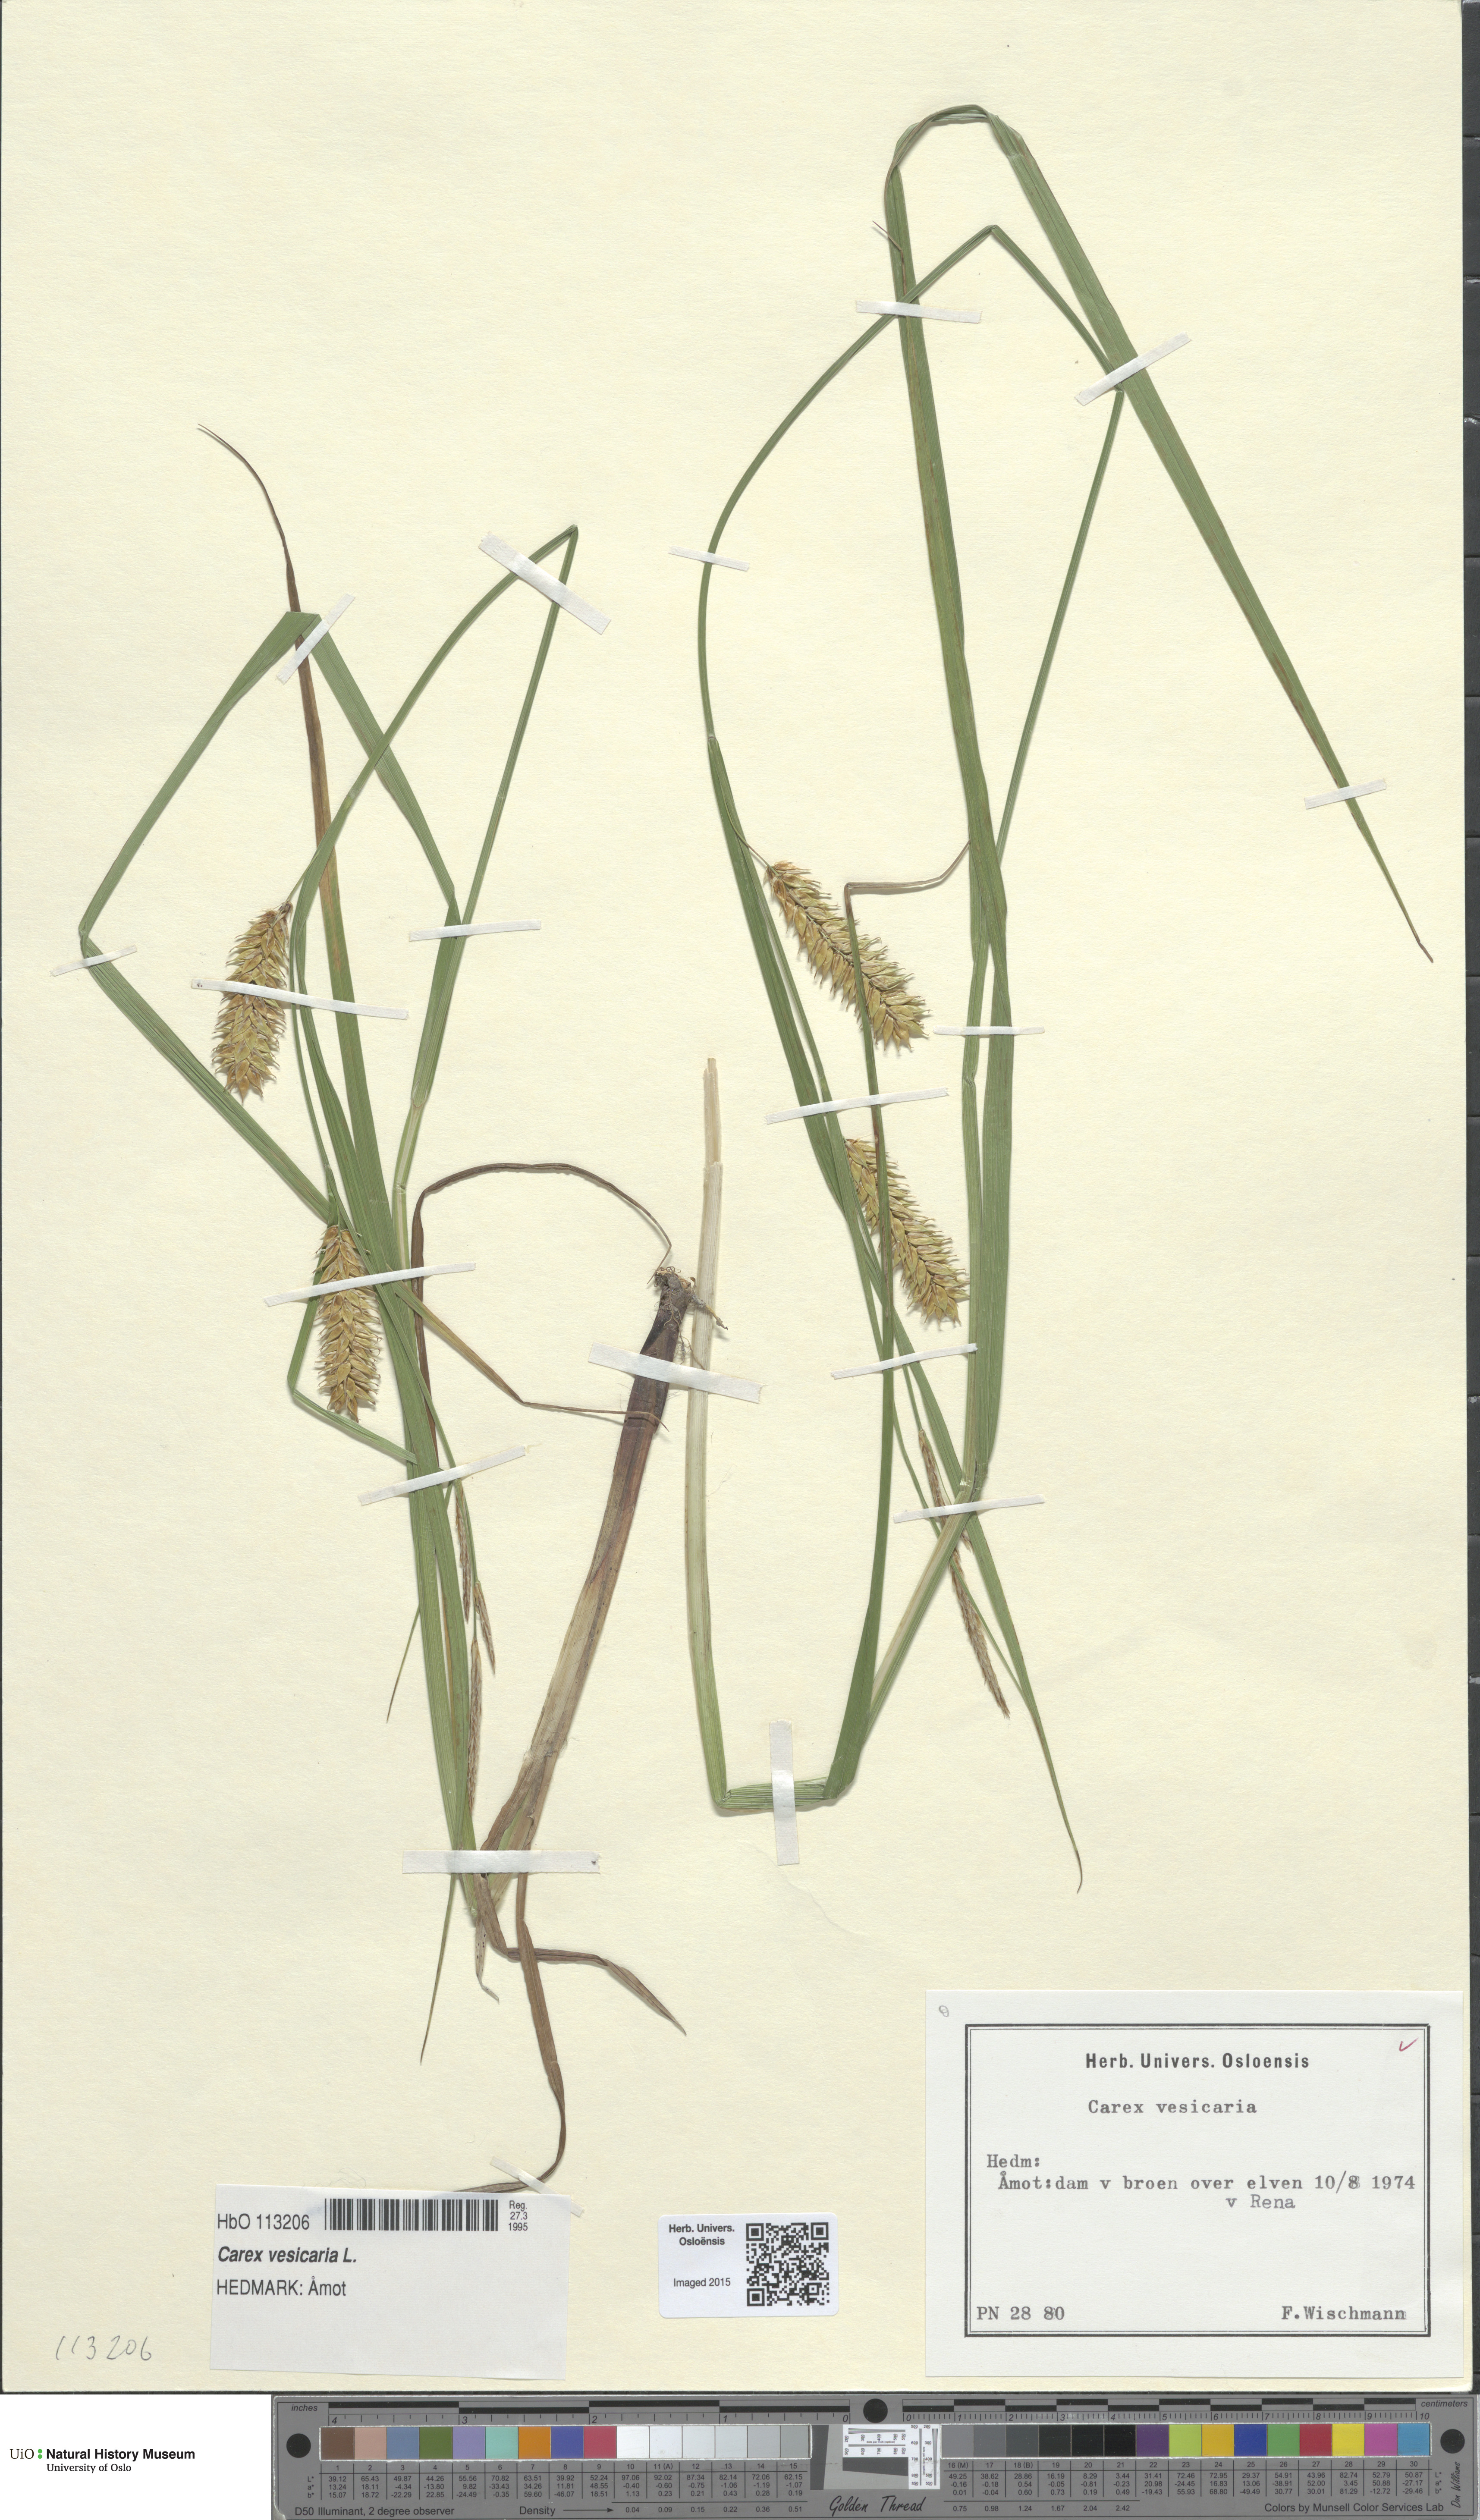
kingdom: Plantae
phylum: Tracheophyta
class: Liliopsida
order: Poales
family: Cyperaceae
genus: Carex
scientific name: Carex vesicaria
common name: Bladder-sedge
